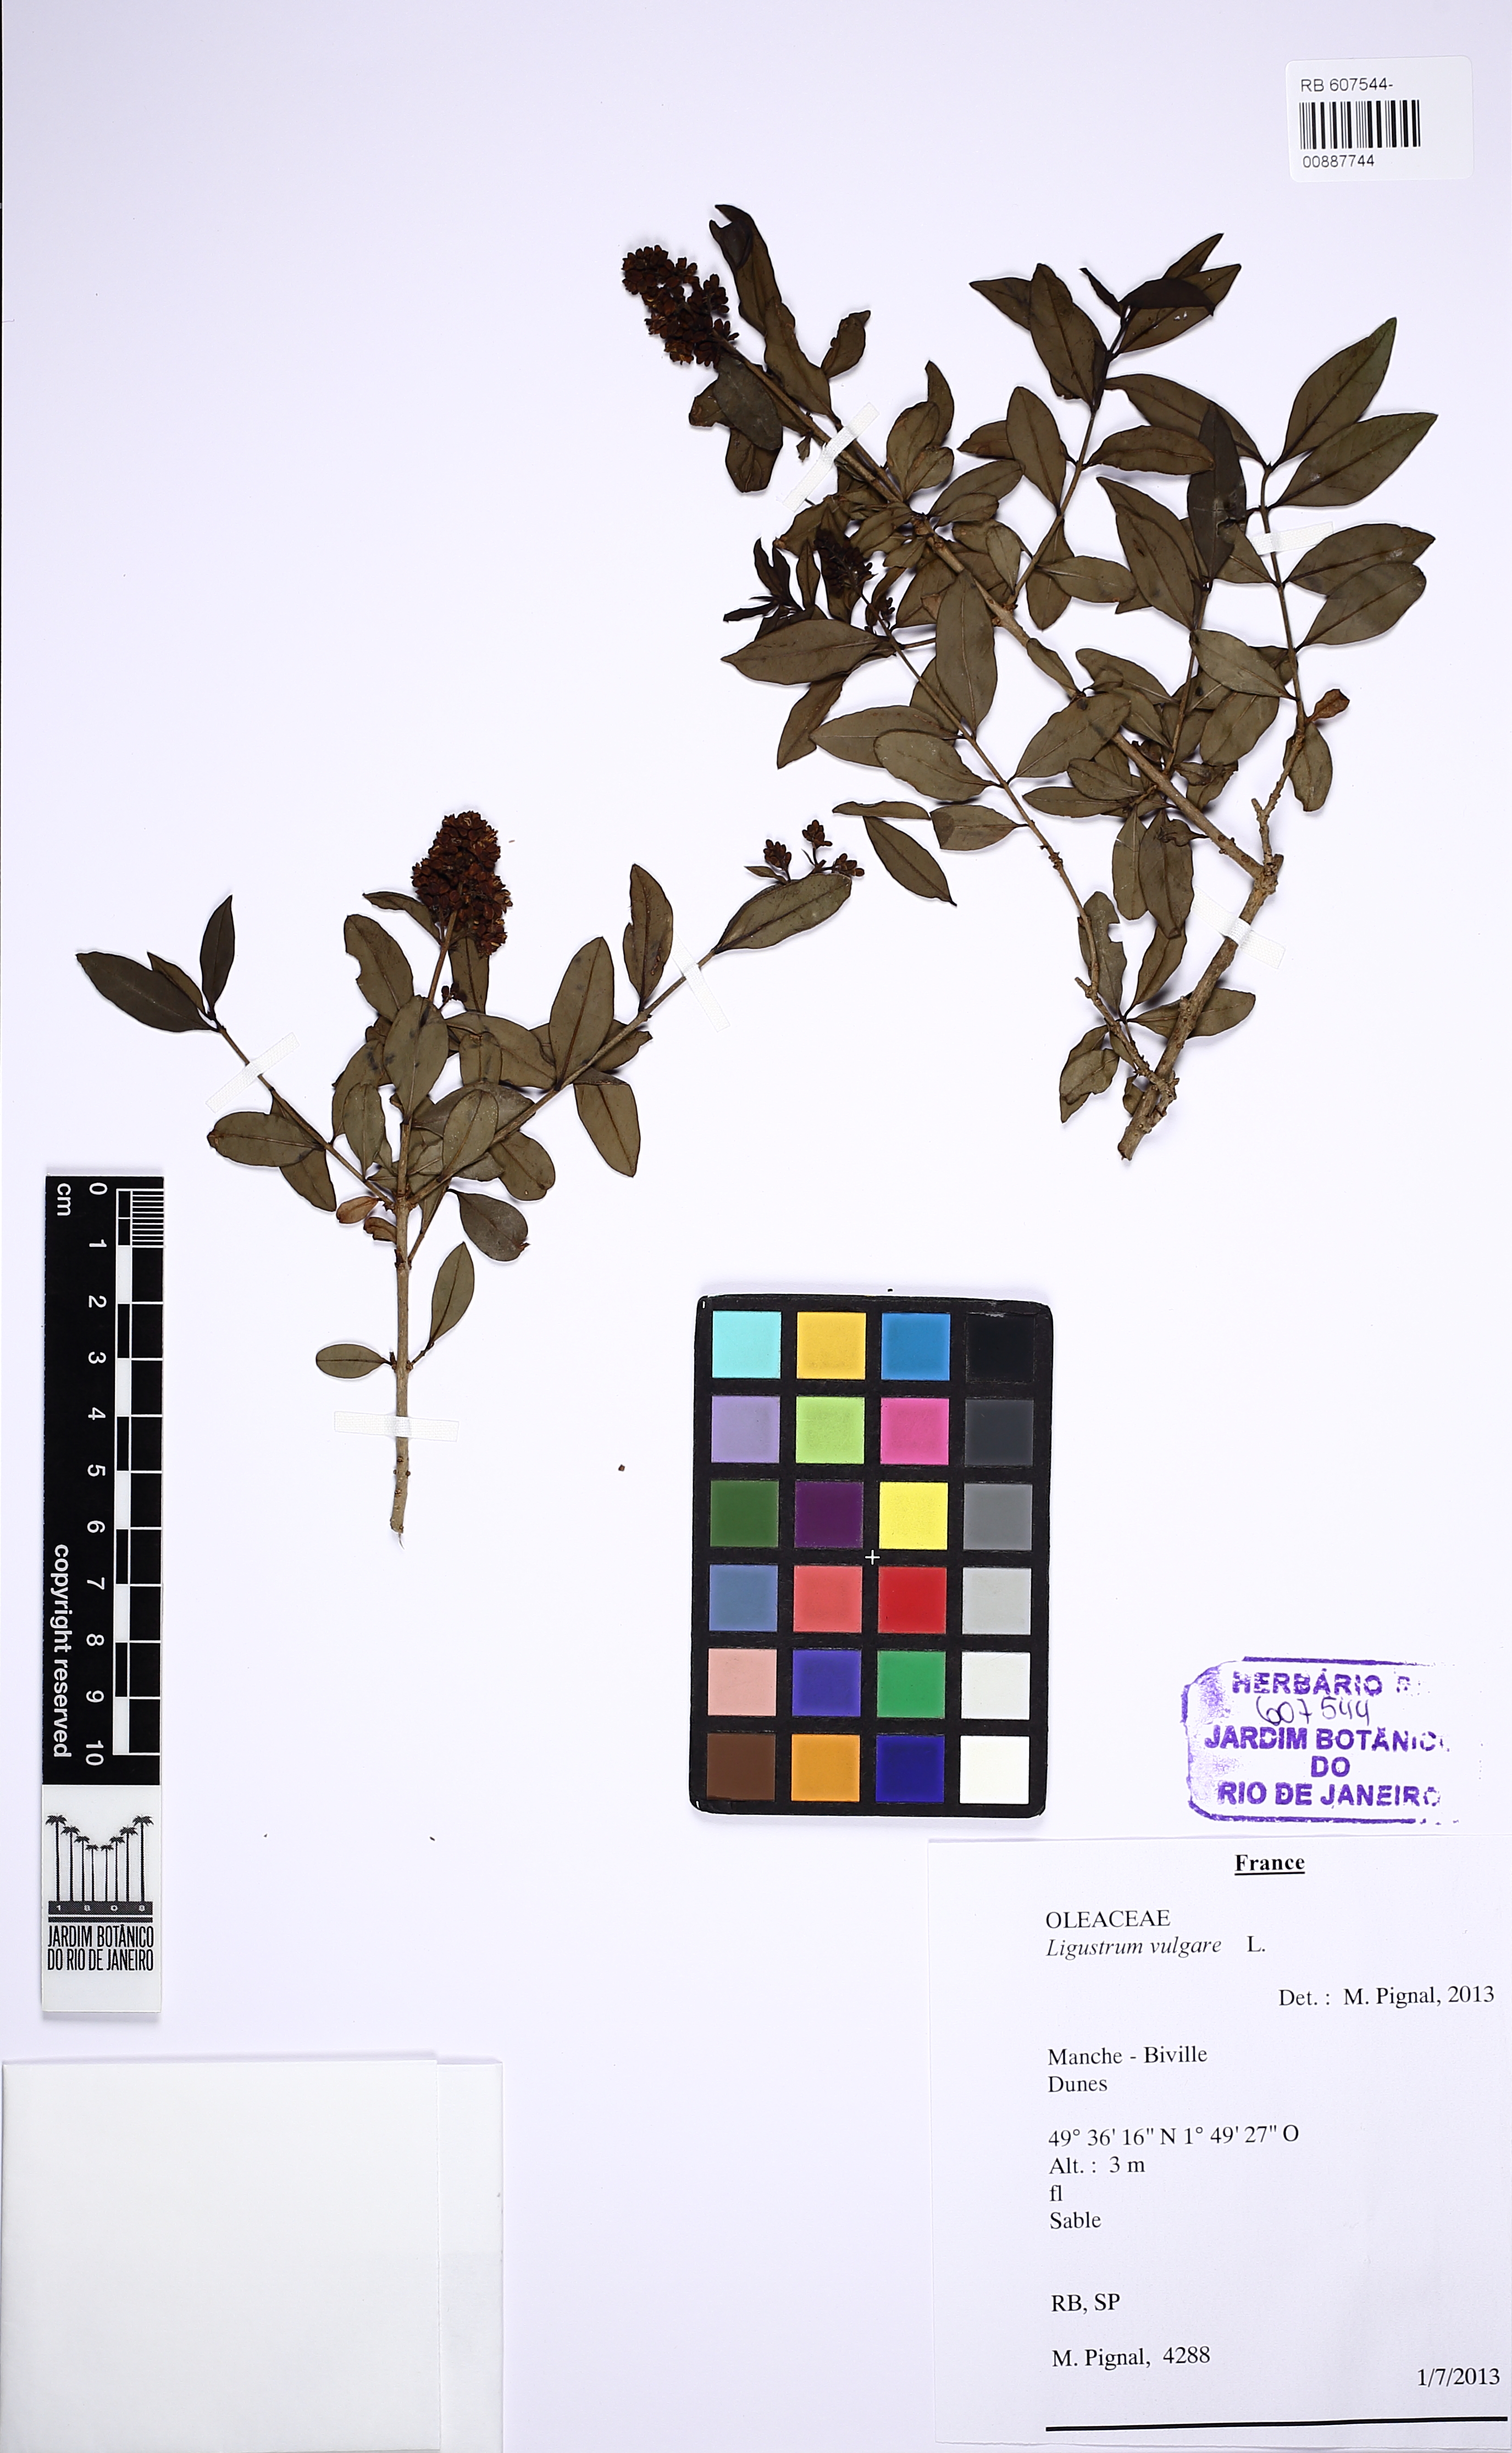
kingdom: Plantae
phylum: Tracheophyta
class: Magnoliopsida
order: Lamiales
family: Oleaceae
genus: Ligustrum
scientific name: Ligustrum vulgare
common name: Wild privet
